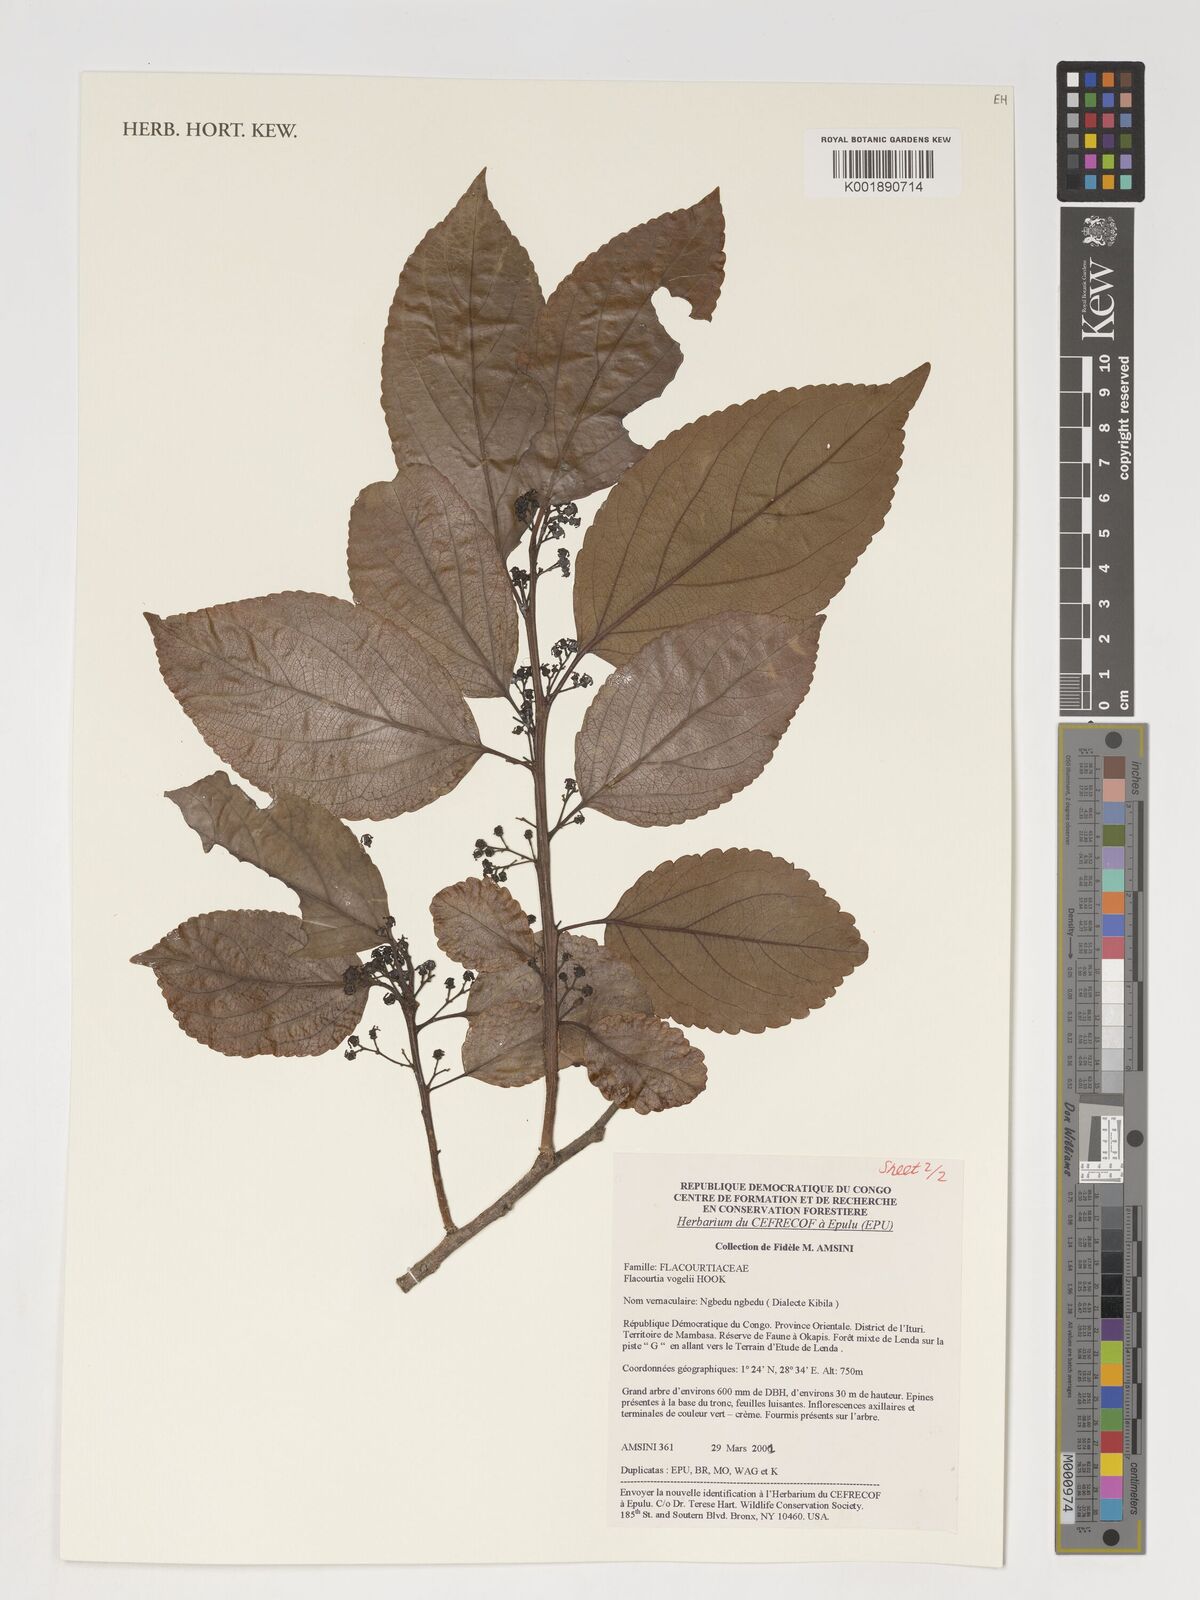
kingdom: Plantae
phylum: Tracheophyta
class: Magnoliopsida
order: Malpighiales
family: Salicaceae
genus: Flacourtia
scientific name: Flacourtia vogelii
